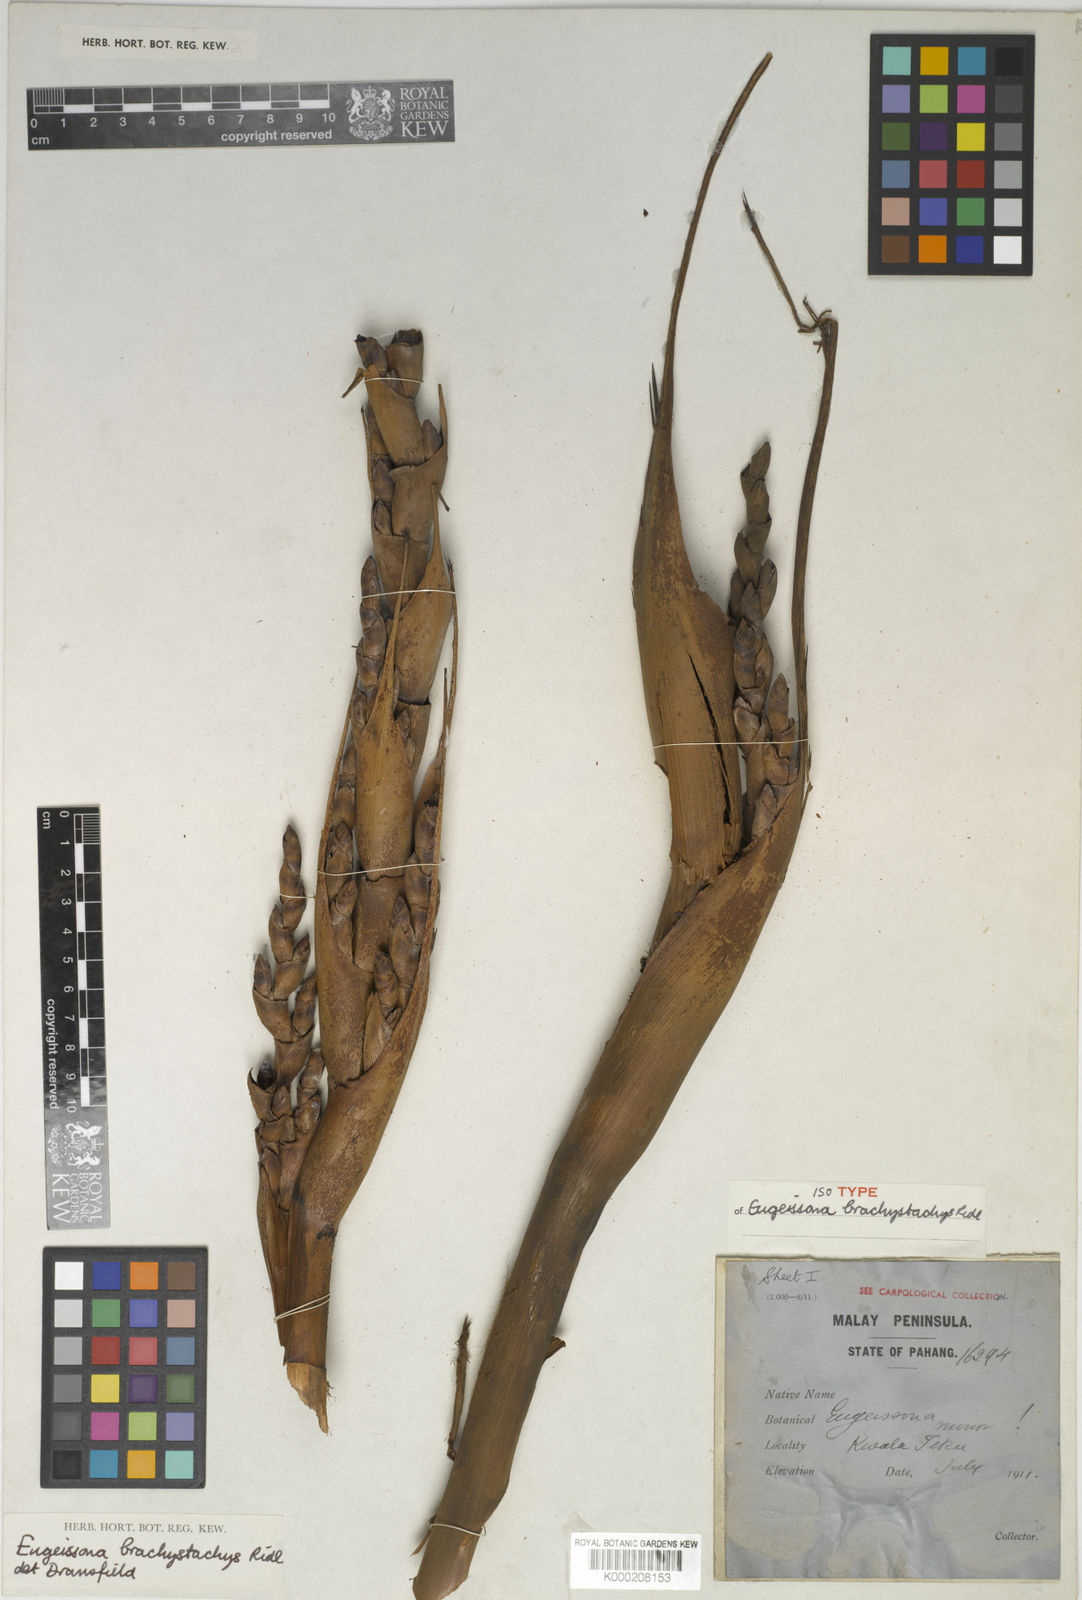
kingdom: Plantae
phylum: Tracheophyta
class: Liliopsida
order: Arecales
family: Arecaceae
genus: Eugeissona
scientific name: Eugeissona brachystachys
